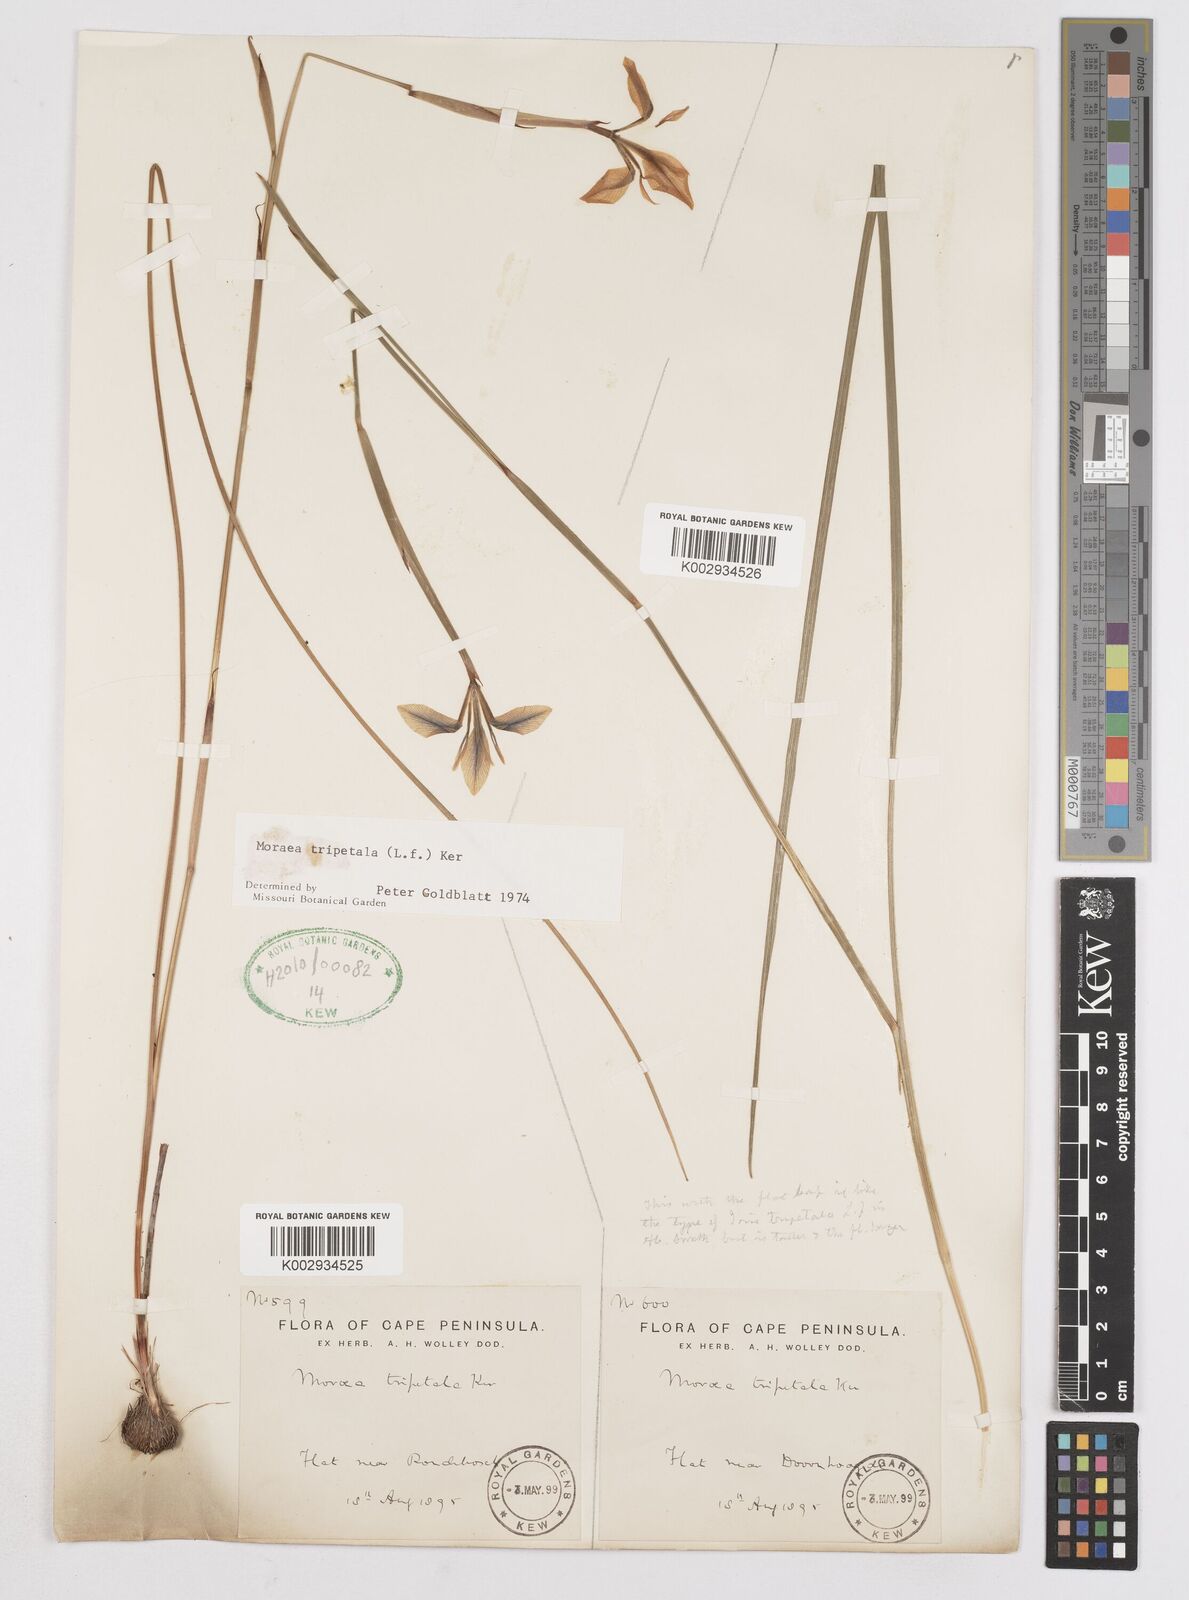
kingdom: Plantae
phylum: Tracheophyta
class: Liliopsida
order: Asparagales
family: Iridaceae
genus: Moraea
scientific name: Moraea tripetala
